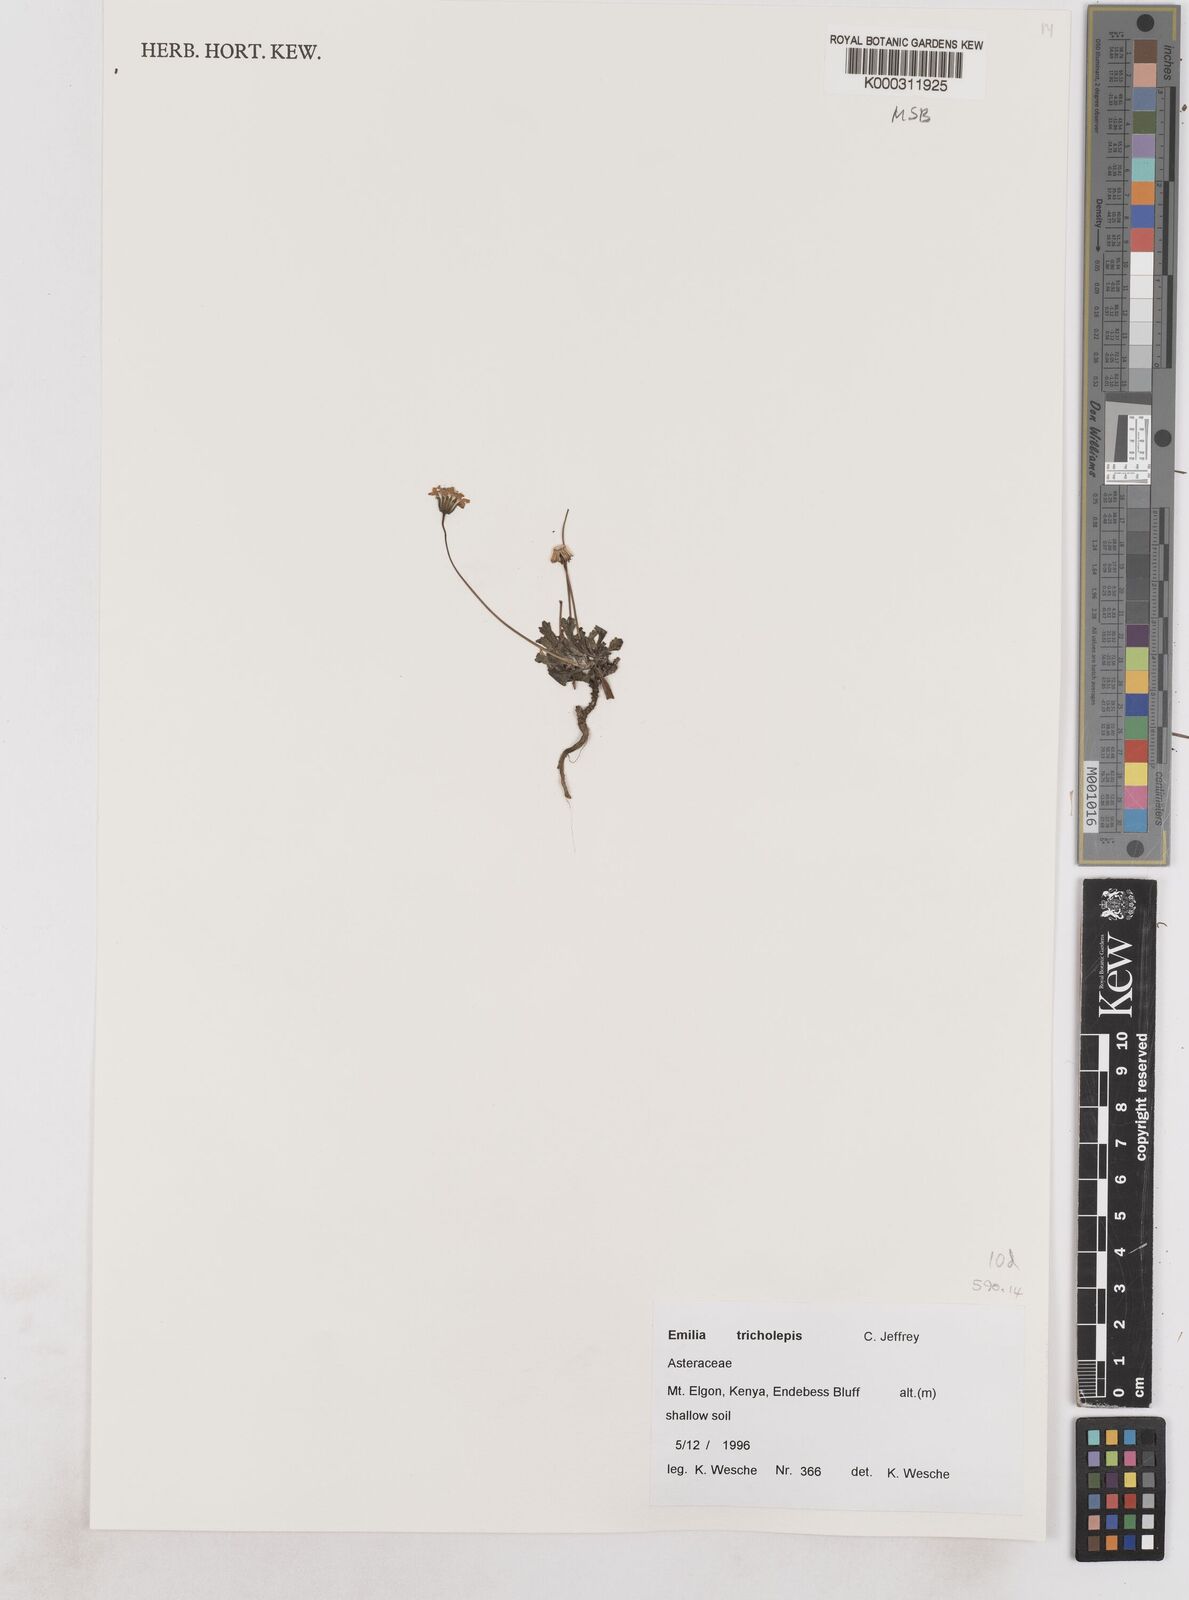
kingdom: Plantae
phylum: Tracheophyta
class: Magnoliopsida
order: Asterales
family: Asteraceae
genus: Emilia
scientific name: Emilia tricholepis
